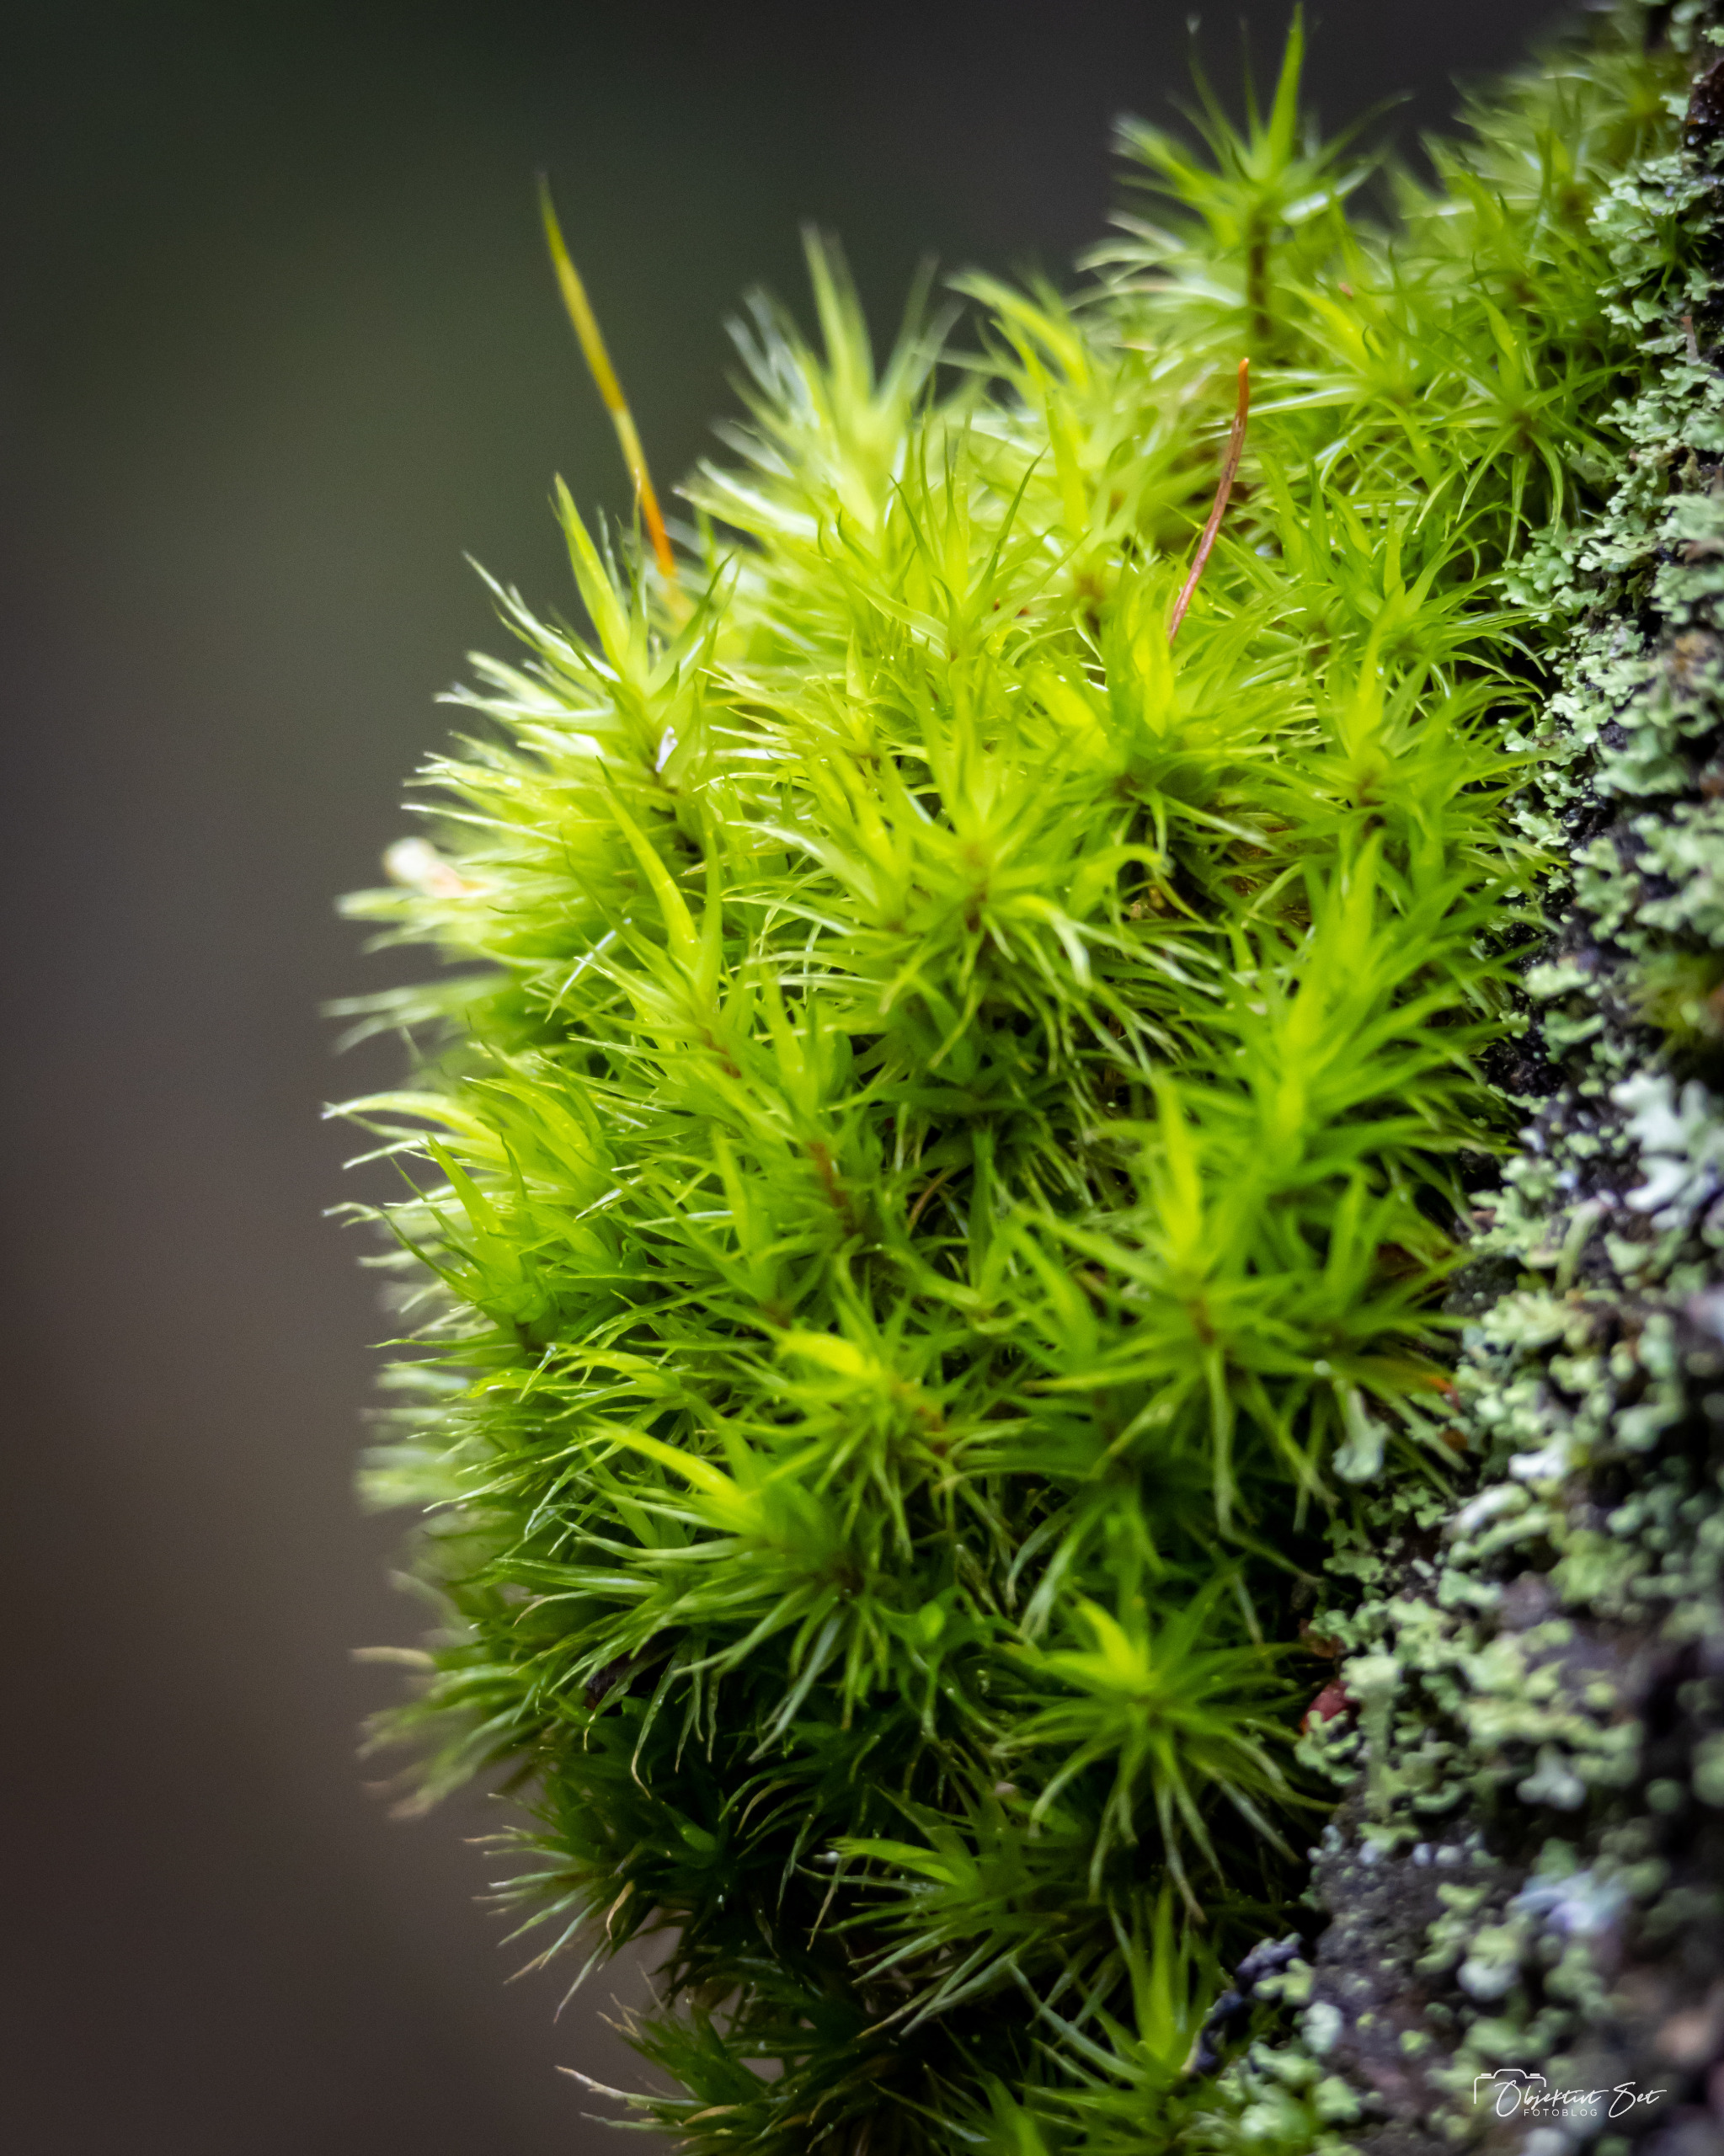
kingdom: Plantae
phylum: Bryophyta
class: Bryopsida
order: Dicranales
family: Dicranaceae
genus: Dicranum
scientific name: Dicranum scoparium
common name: Almindelig kløvtand
